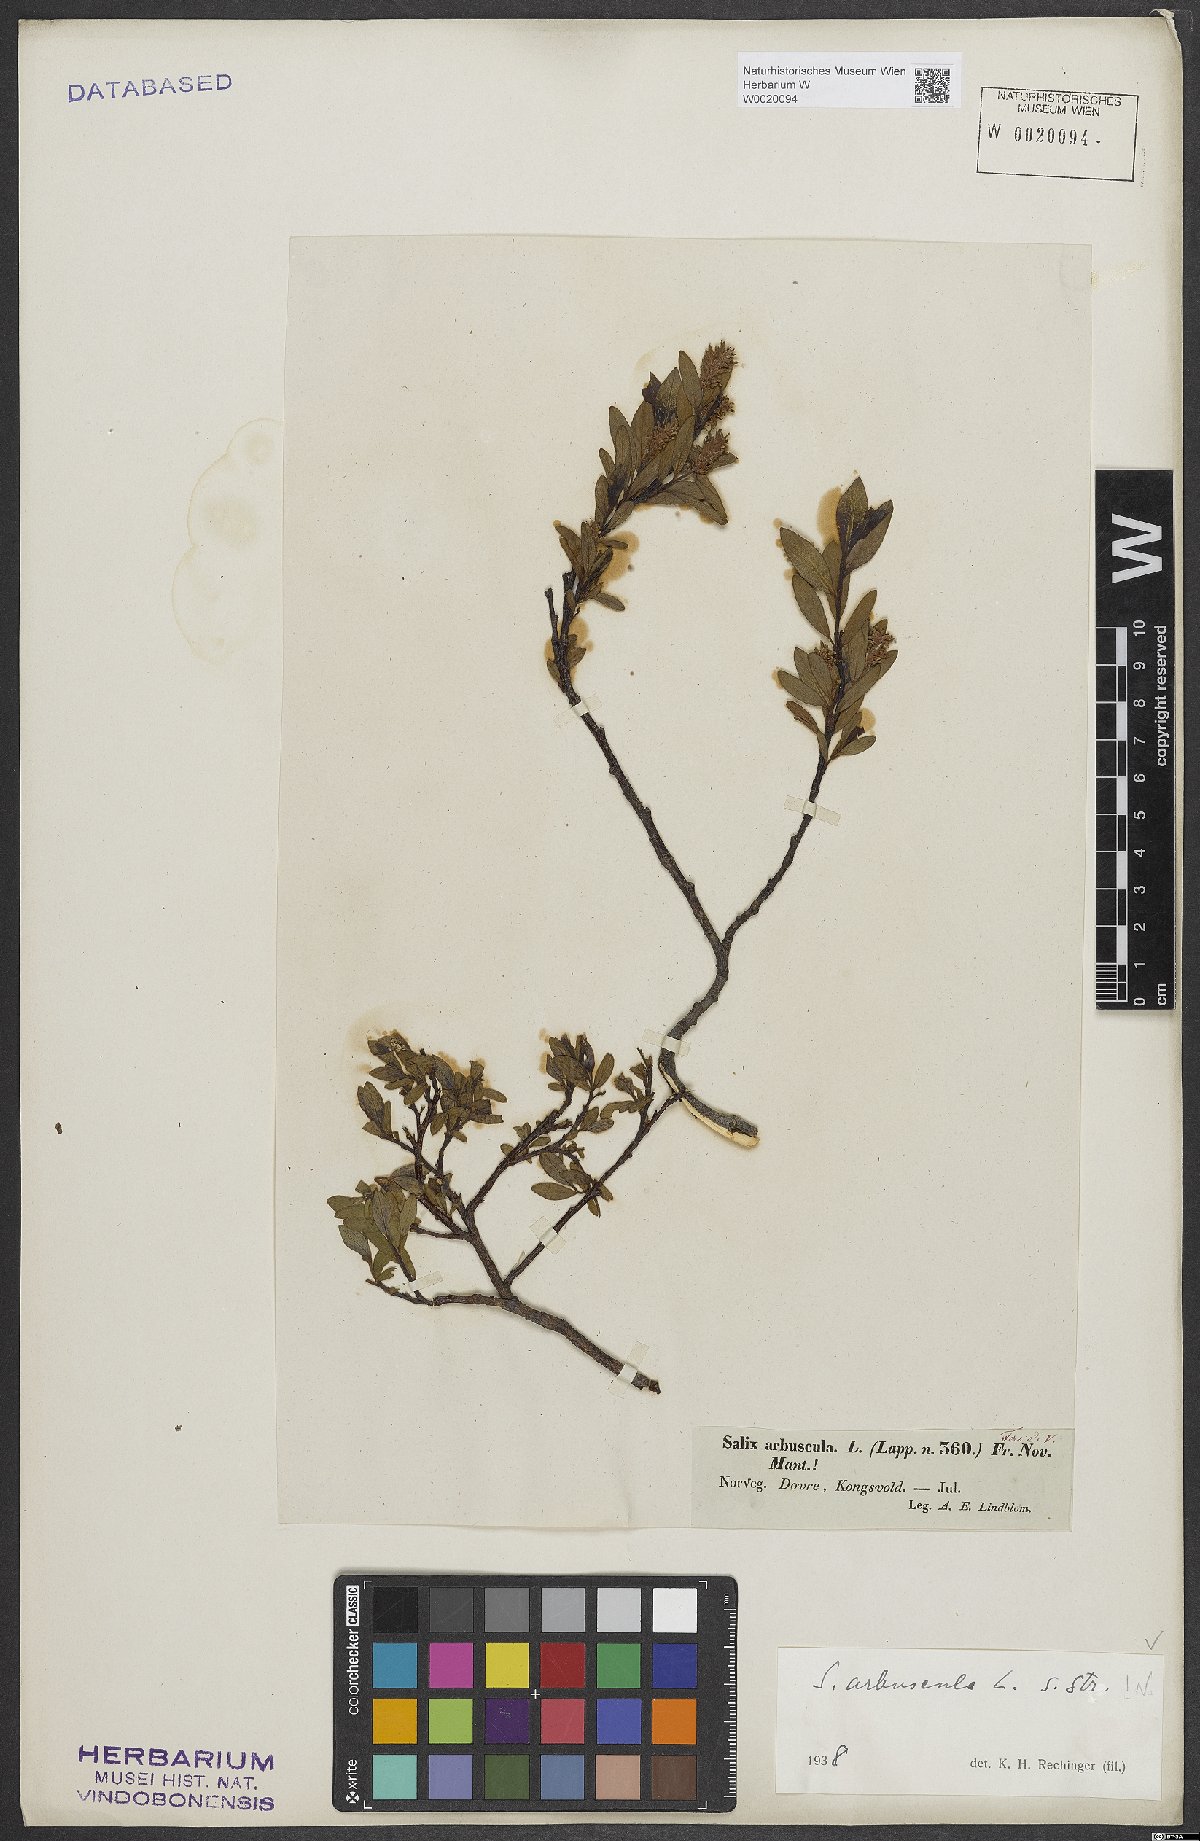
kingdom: Plantae
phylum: Tracheophyta
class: Magnoliopsida
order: Malpighiales
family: Salicaceae
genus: Salix
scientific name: Salix arbuscula
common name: Mountain willow
